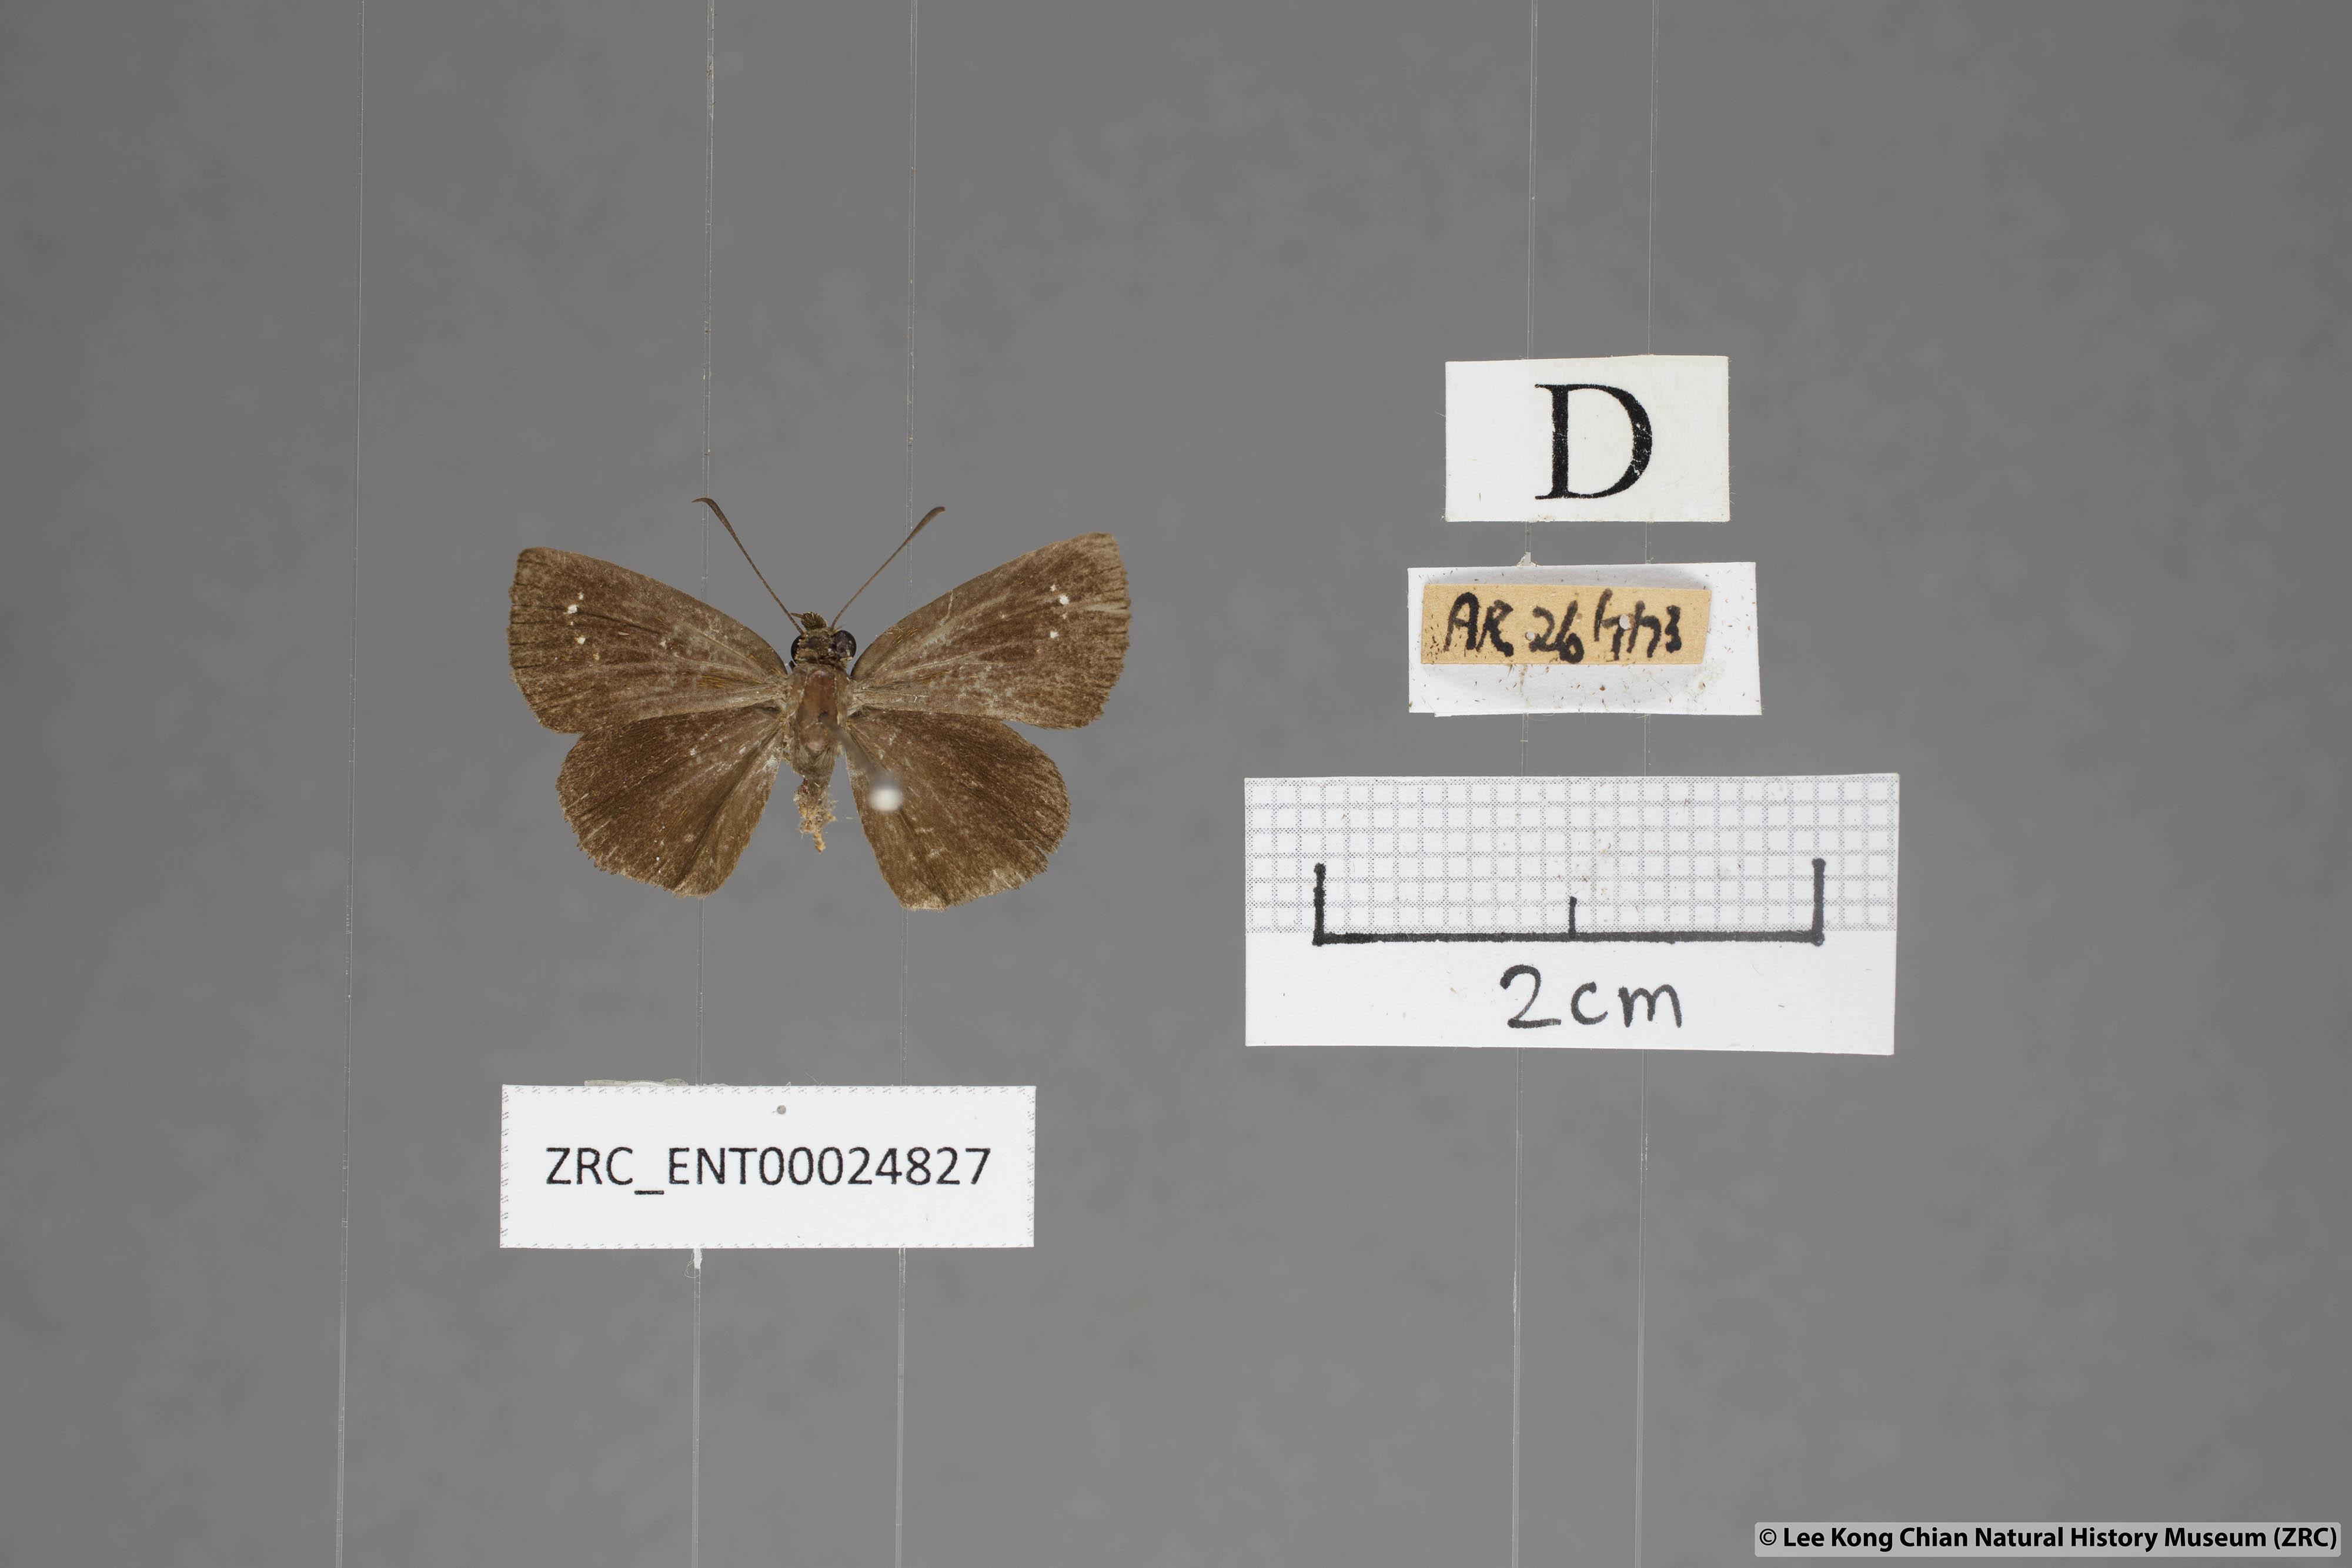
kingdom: Animalia
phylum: Arthropoda
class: Insecta
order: Lepidoptera
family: Hesperiidae
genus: Iambrix
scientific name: Iambrix stellifer
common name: Starry bob
